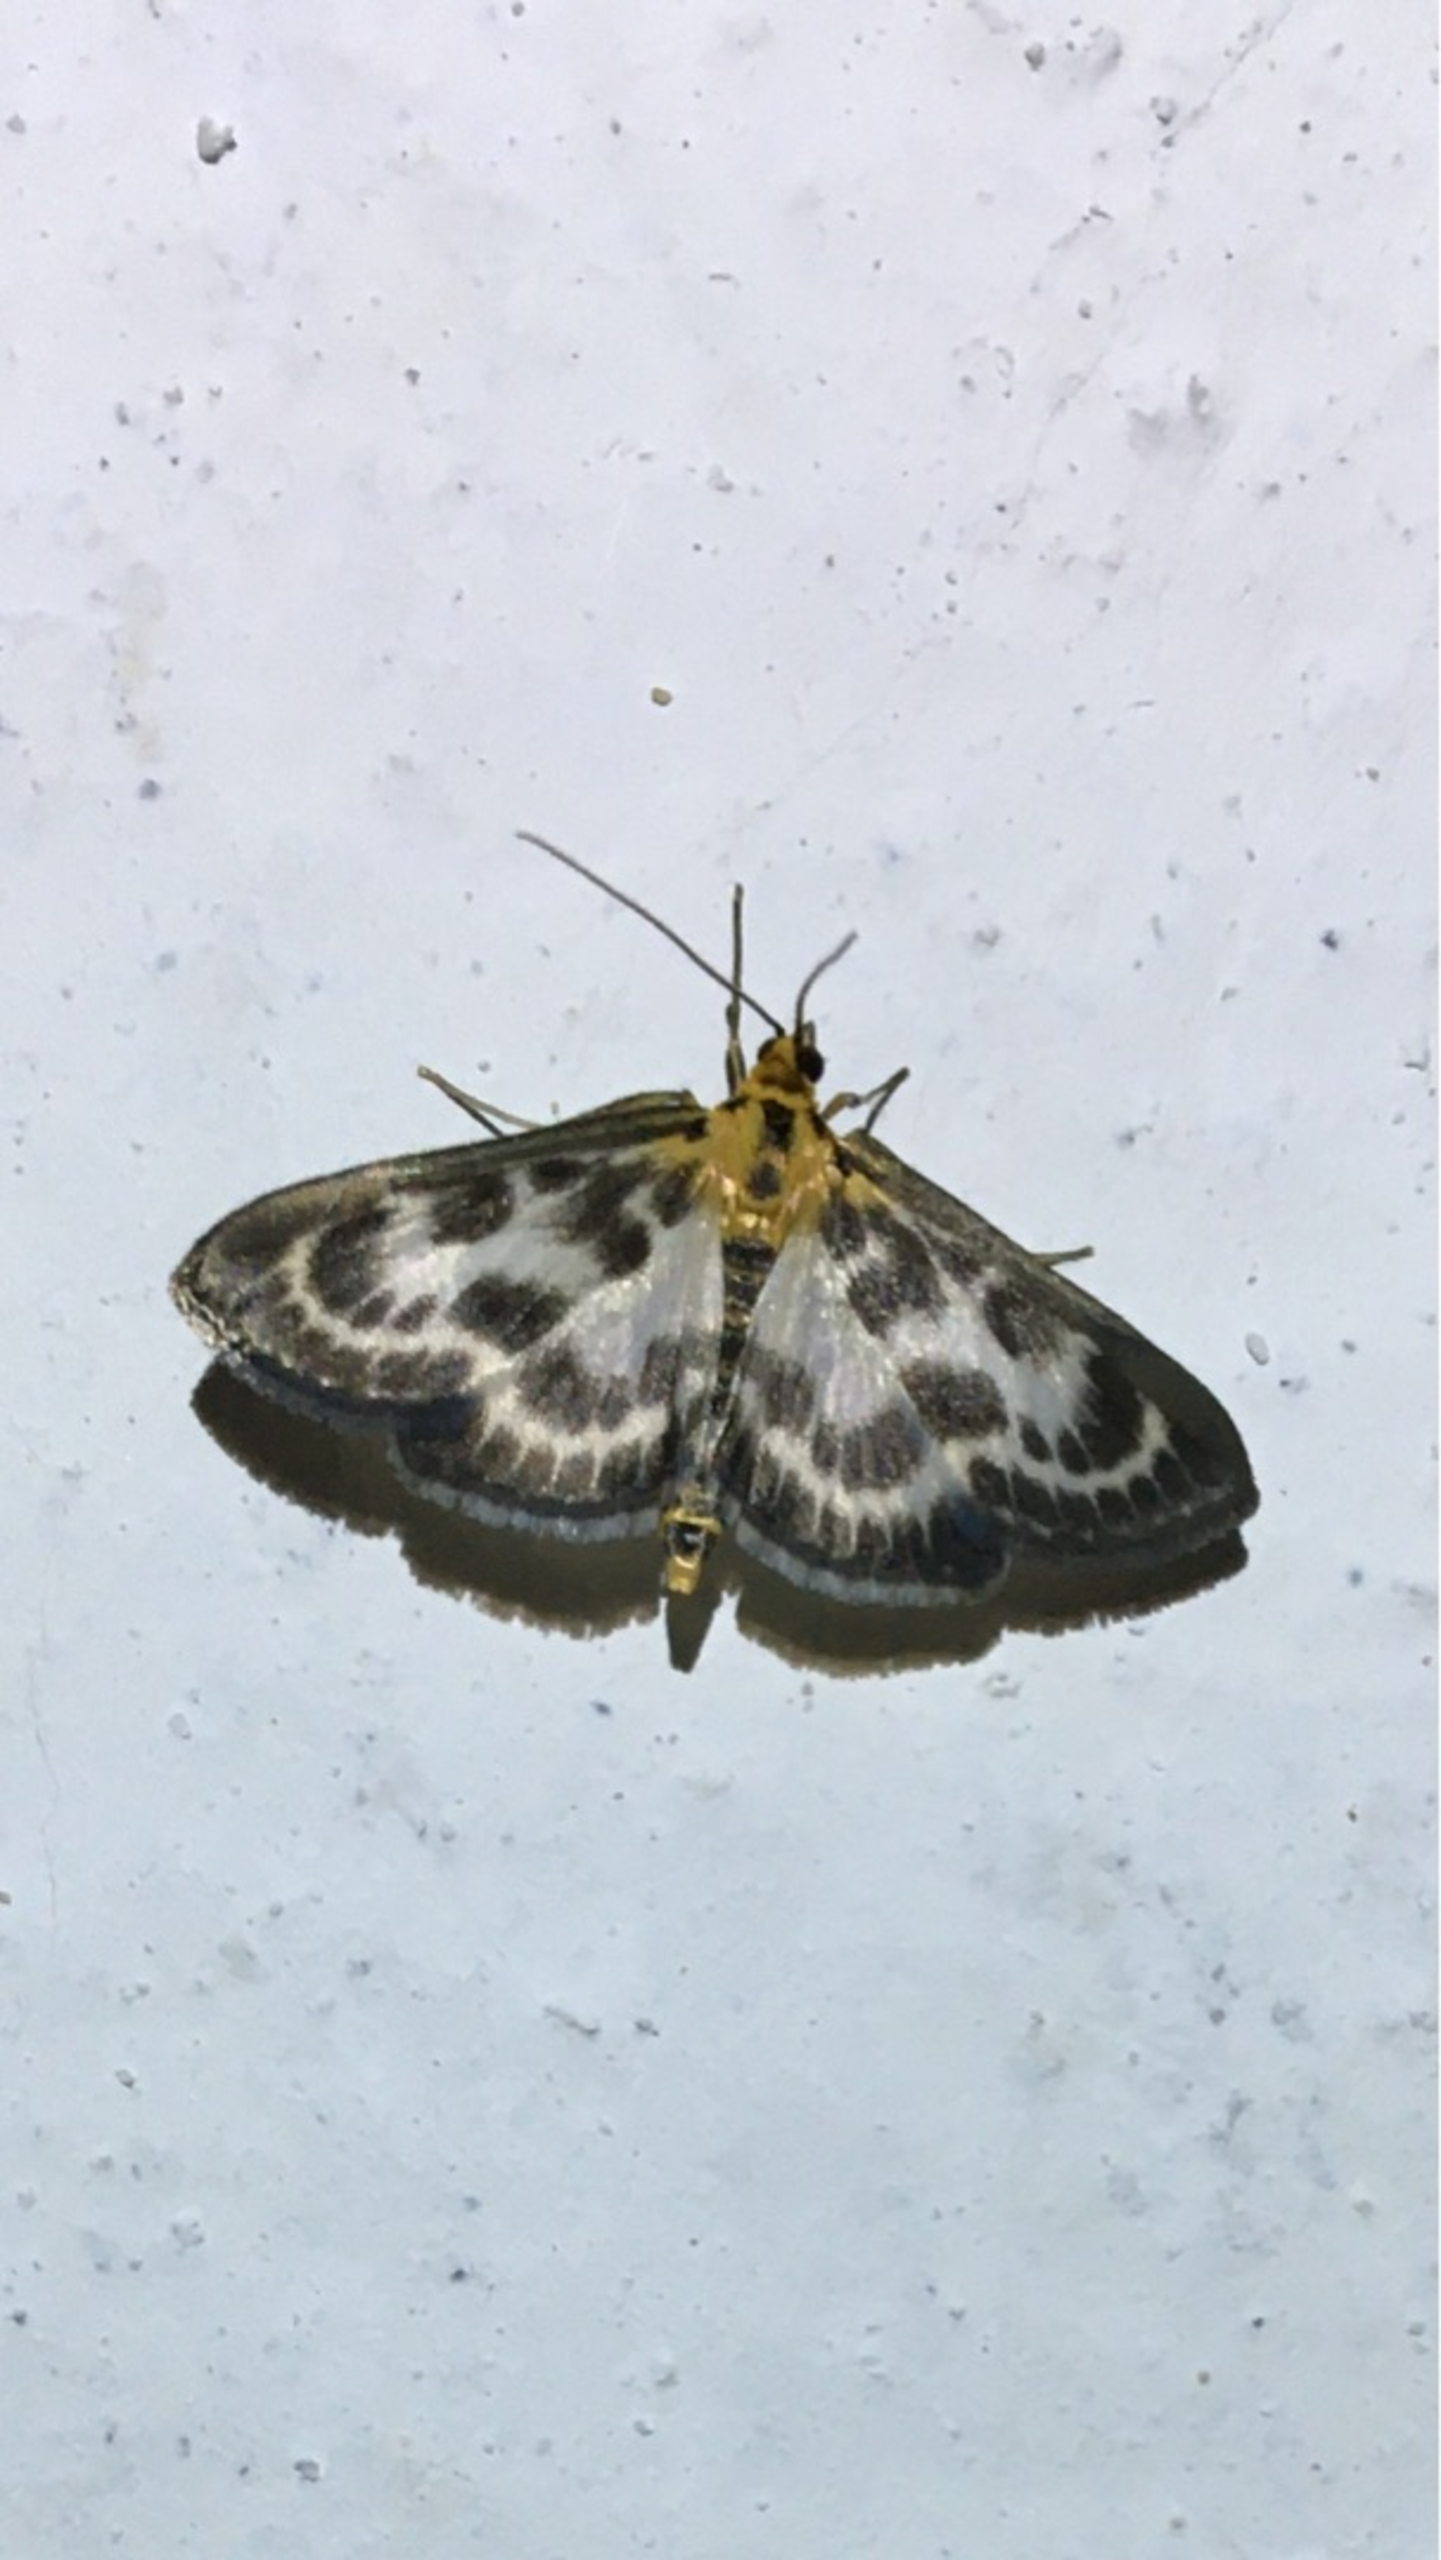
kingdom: Animalia
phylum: Arthropoda
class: Insecta
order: Lepidoptera
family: Crambidae
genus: Anania
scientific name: Anania hortulata
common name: Nældehalvmøl
